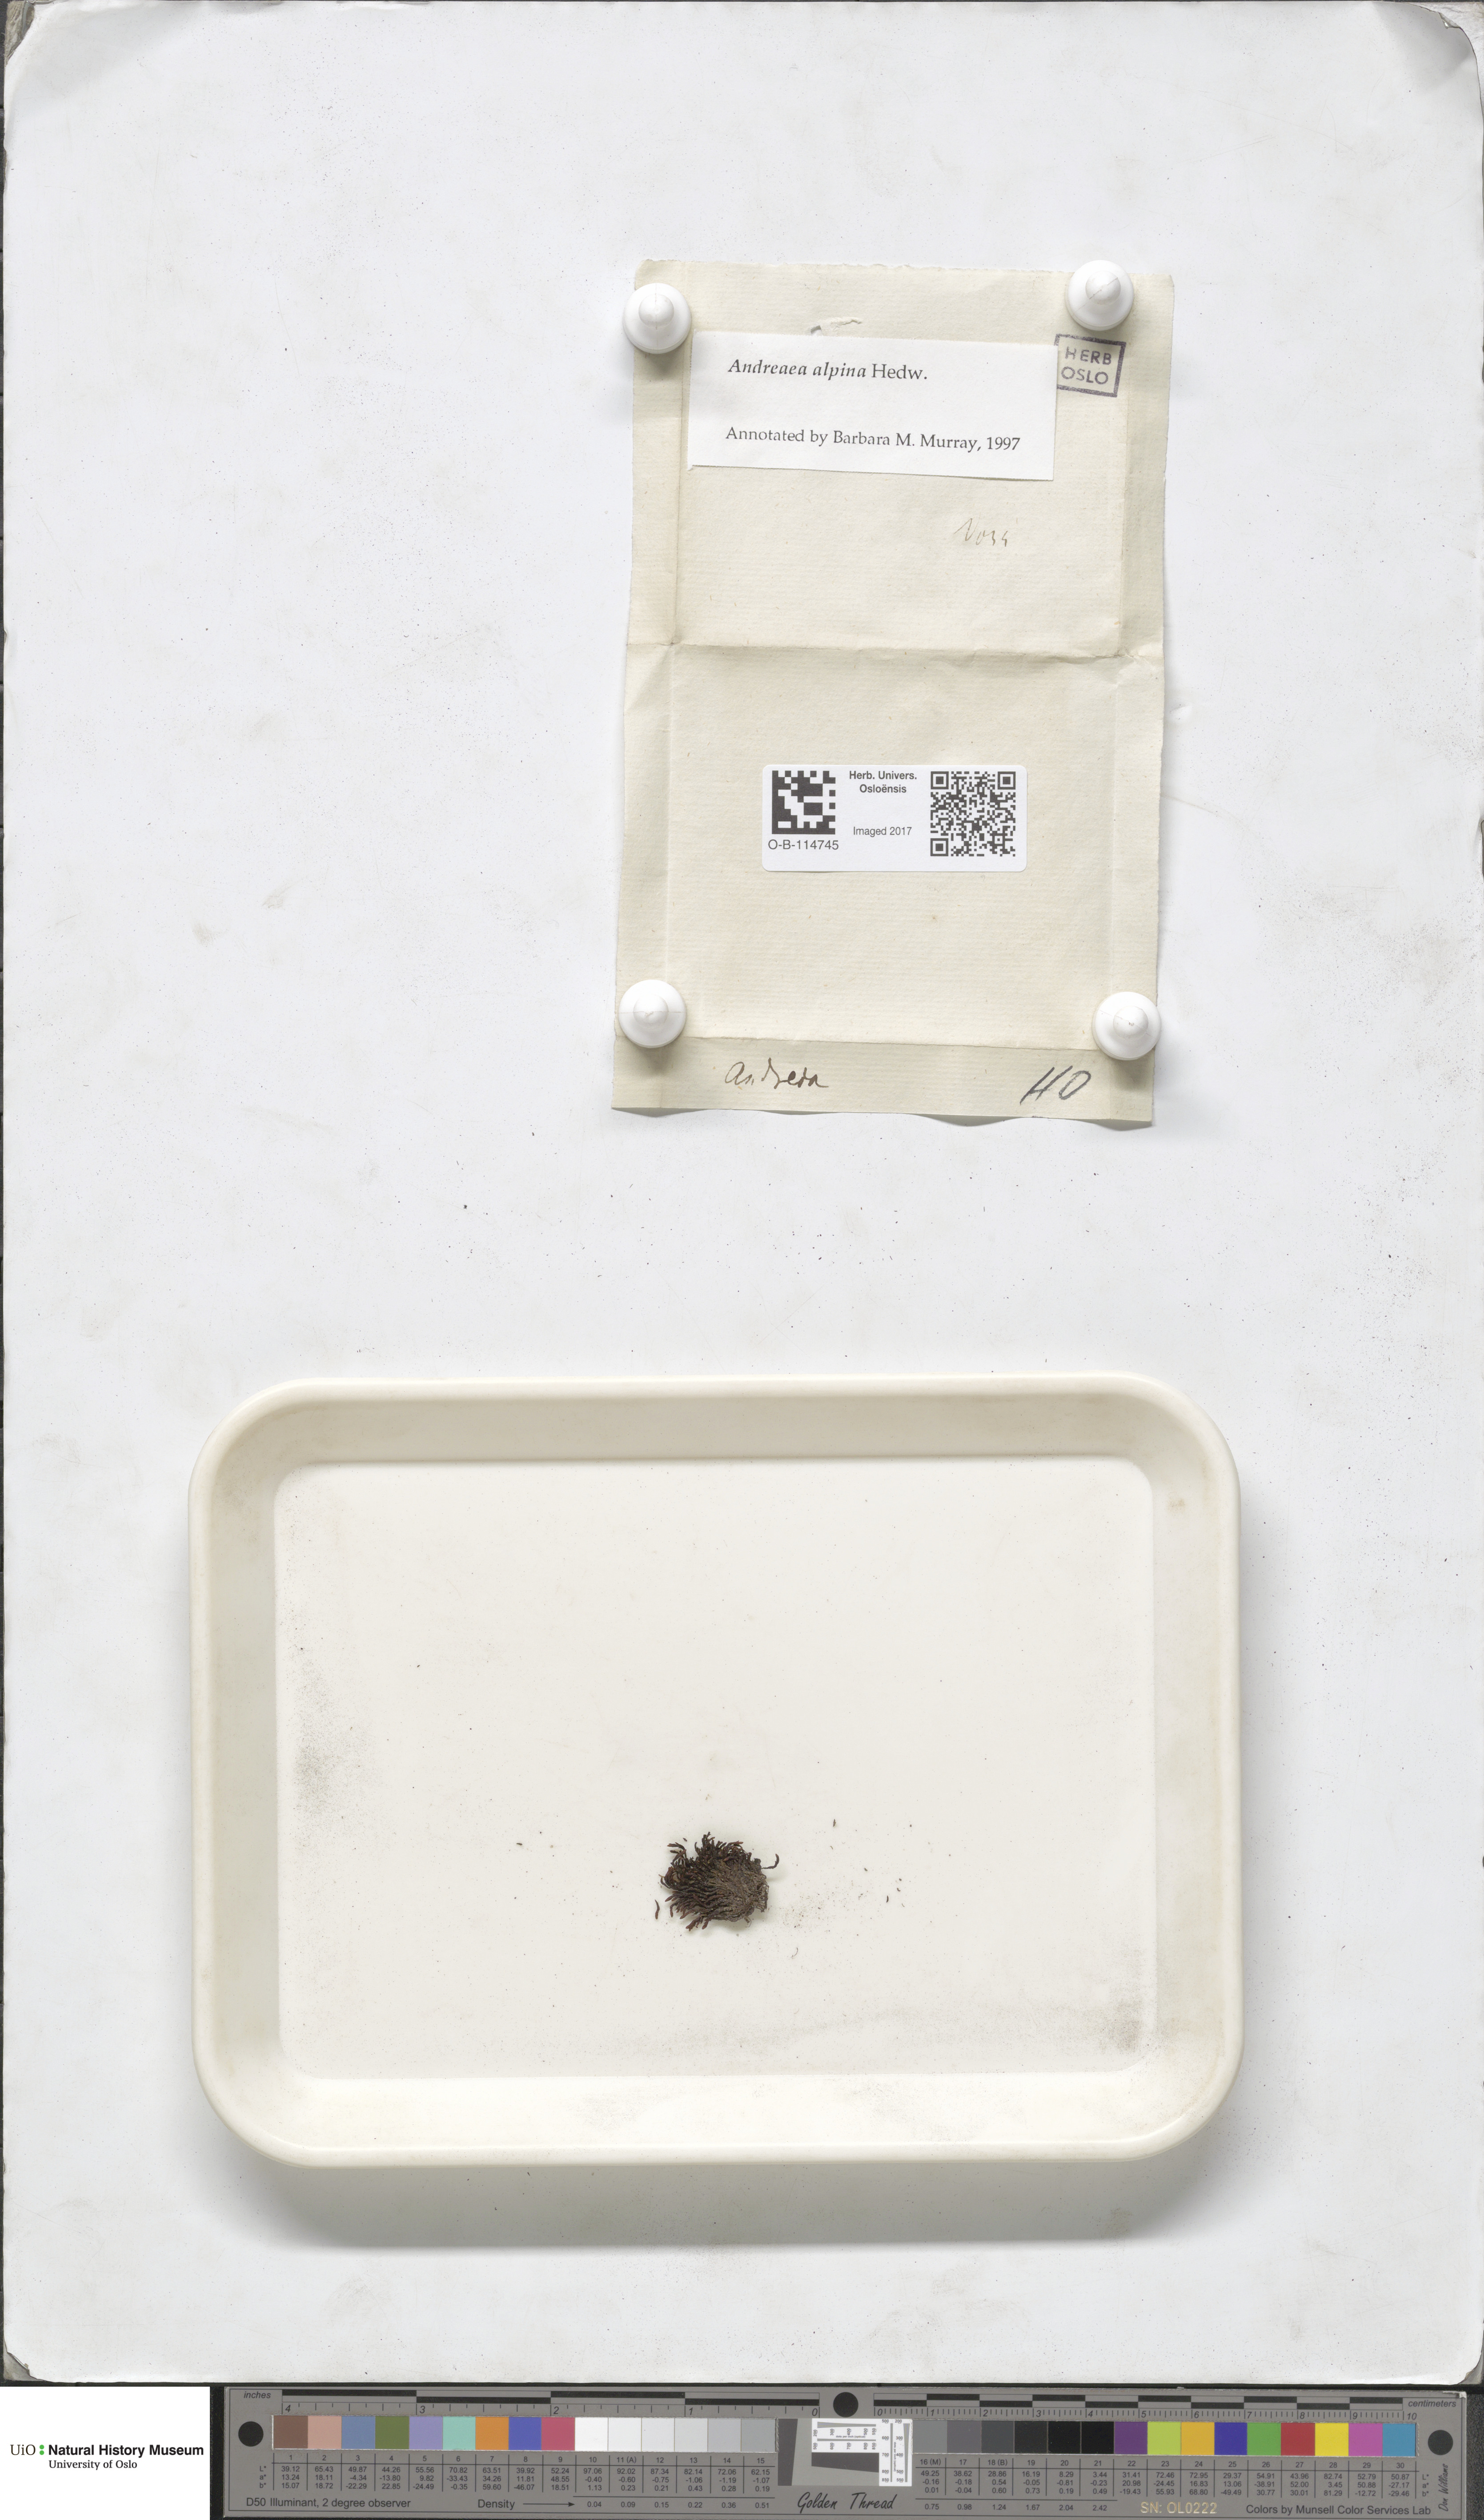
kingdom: Plantae
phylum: Bryophyta
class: Andreaeopsida
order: Andreaeales
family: Andreaeaceae
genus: Andreaea
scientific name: Andreaea hookeri
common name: Alpine rock-moss
